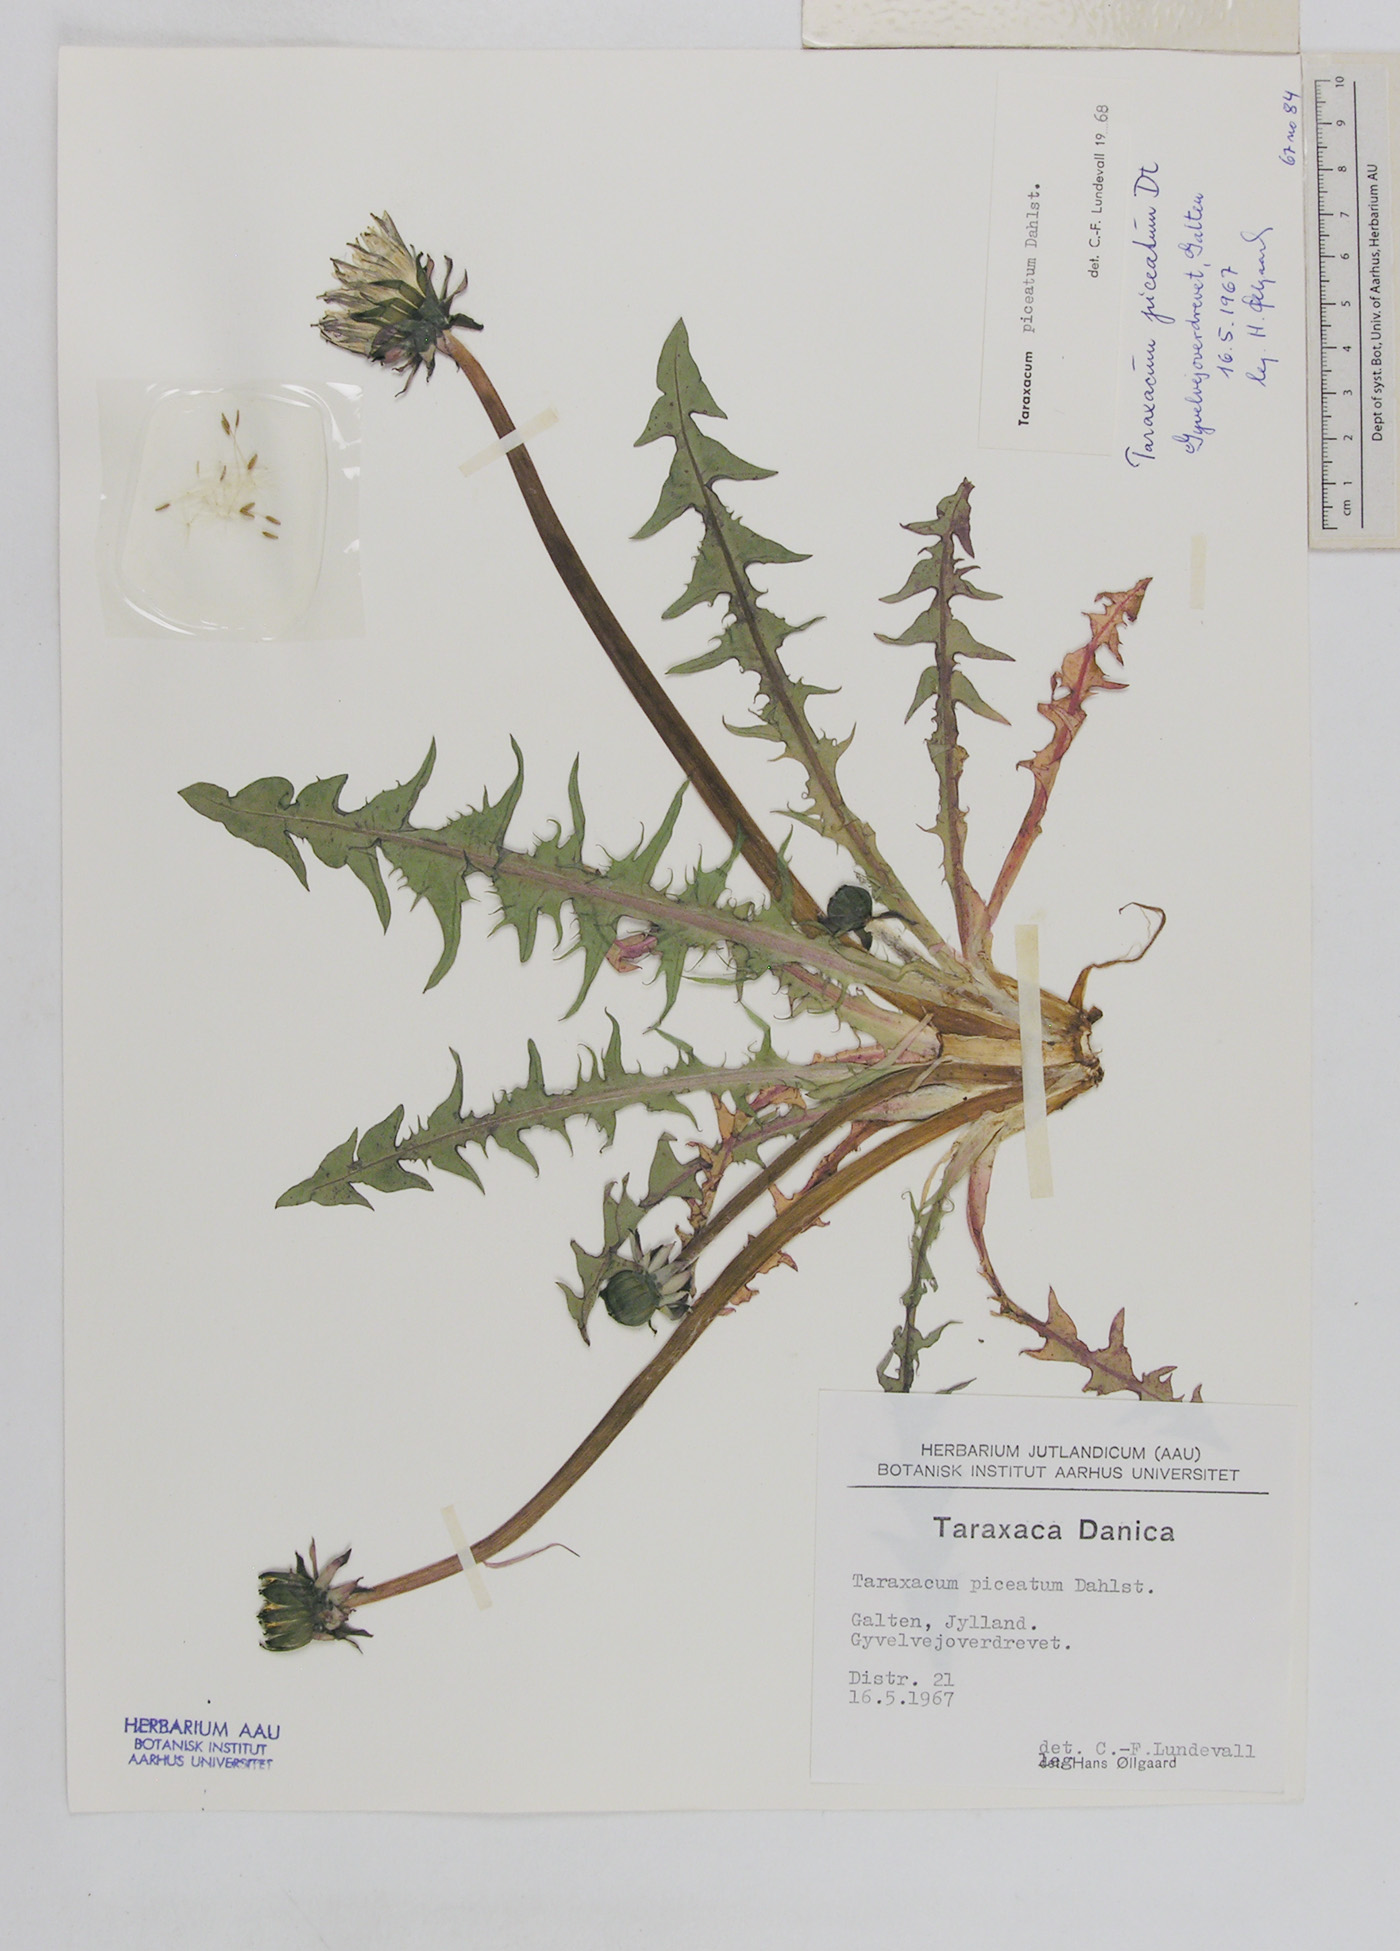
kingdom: Plantae
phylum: Tracheophyta
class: Magnoliopsida
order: Asterales
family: Asteraceae
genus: Taraxacum
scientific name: Taraxacum piceatum
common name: Leaden-bracted dandelion
